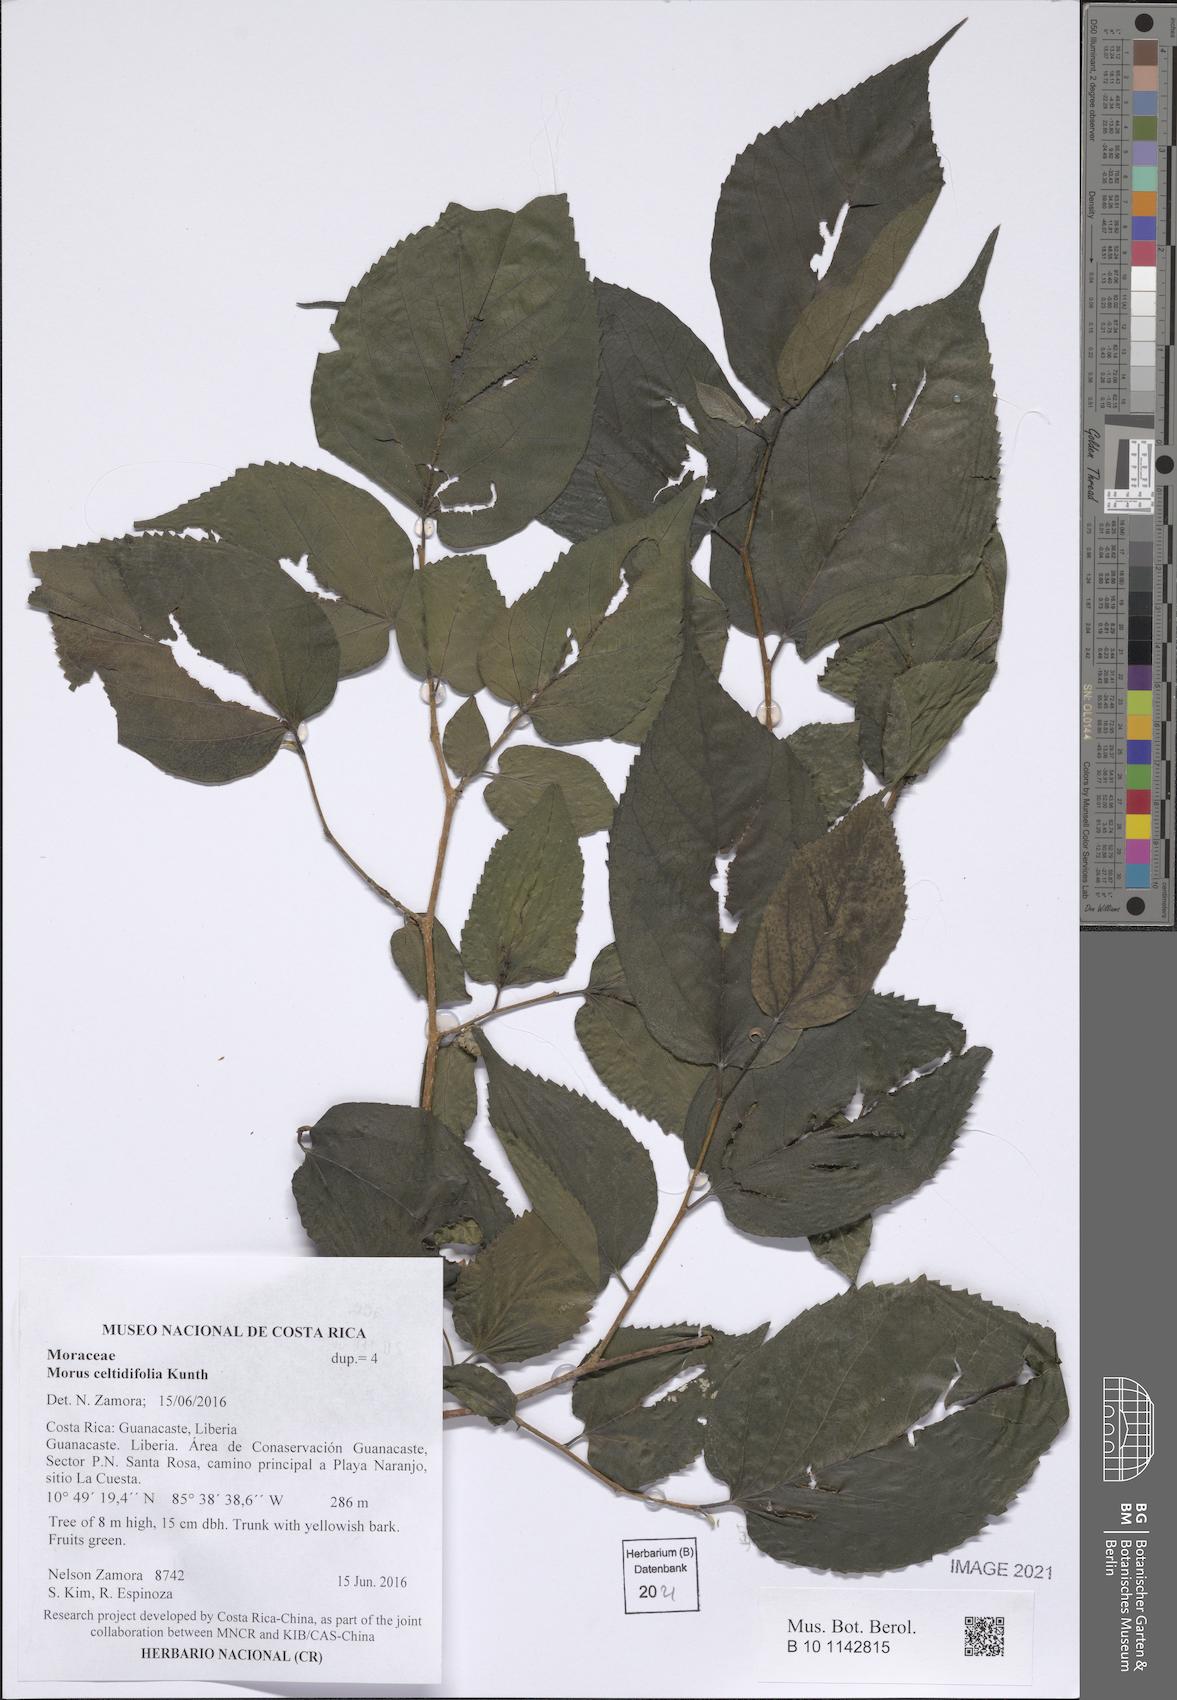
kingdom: Plantae
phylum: Tracheophyta
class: Magnoliopsida
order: Rosales
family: Moraceae
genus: Morus
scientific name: Morus celtidifolia
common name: Texas mulberry
